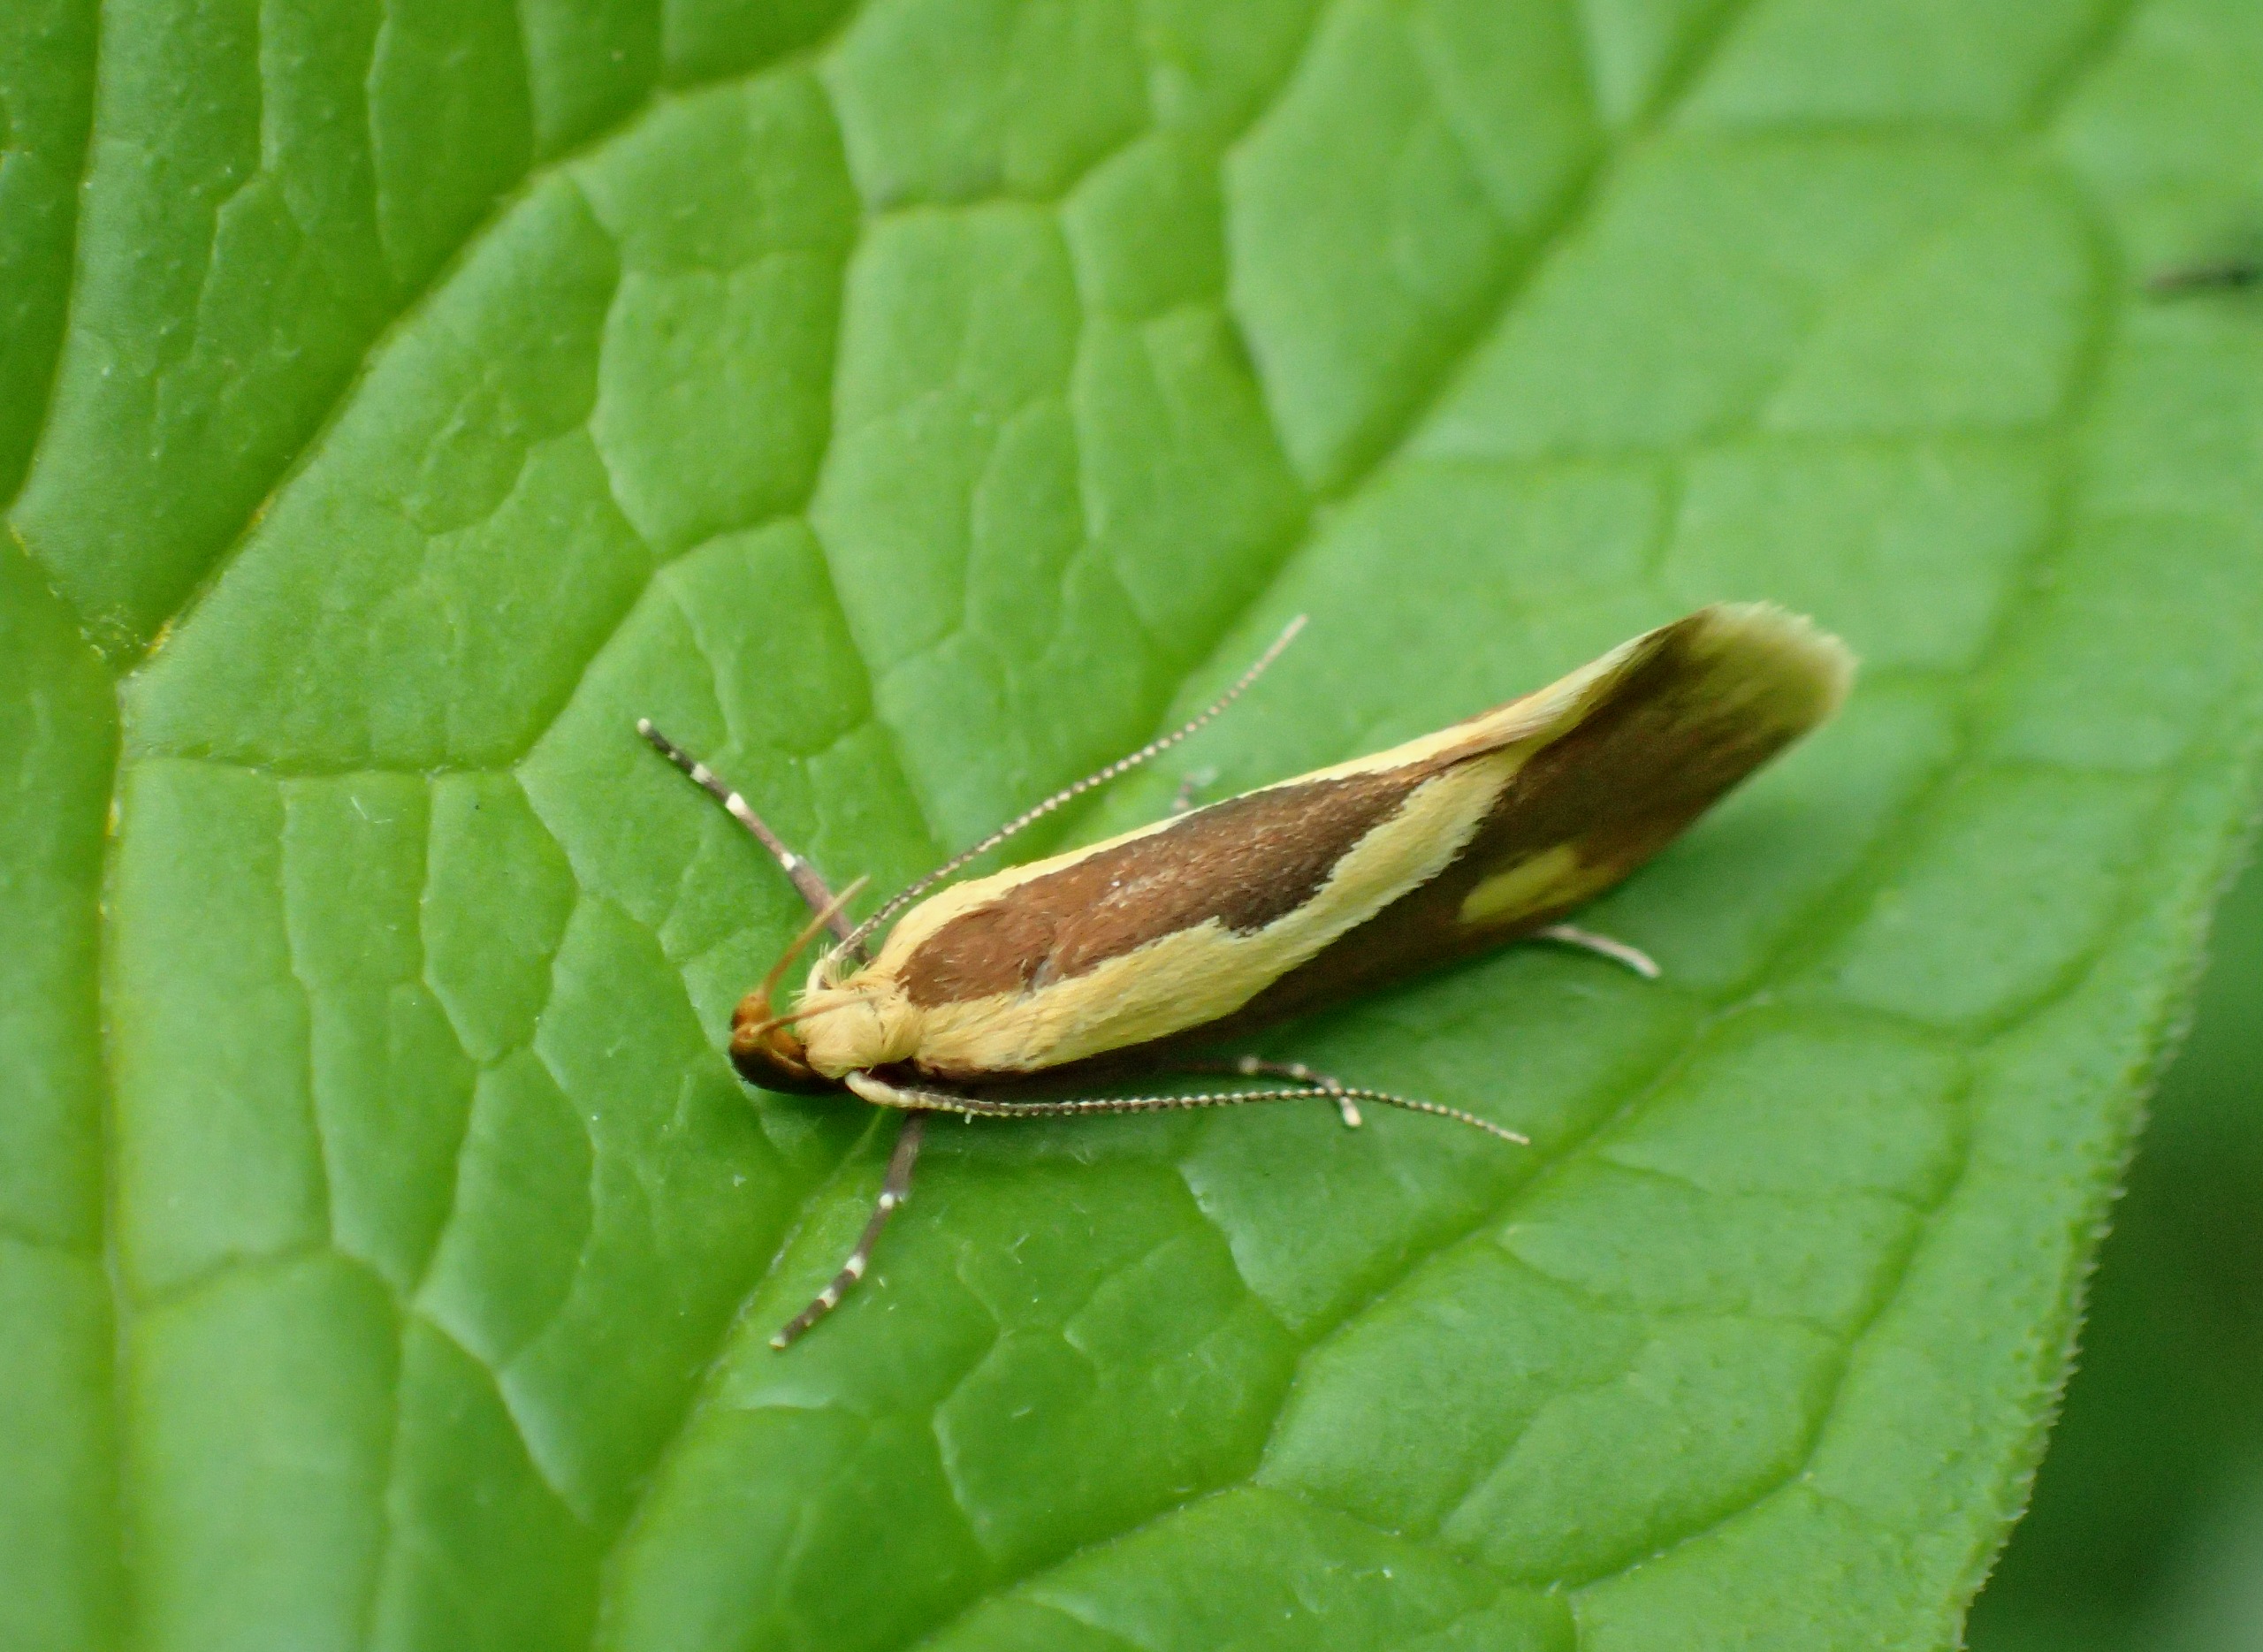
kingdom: Animalia
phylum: Arthropoda
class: Insecta
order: Lepidoptera
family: Oecophoridae
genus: Harpella
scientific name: Harpella forficella
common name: Kæmpeprydvinge
